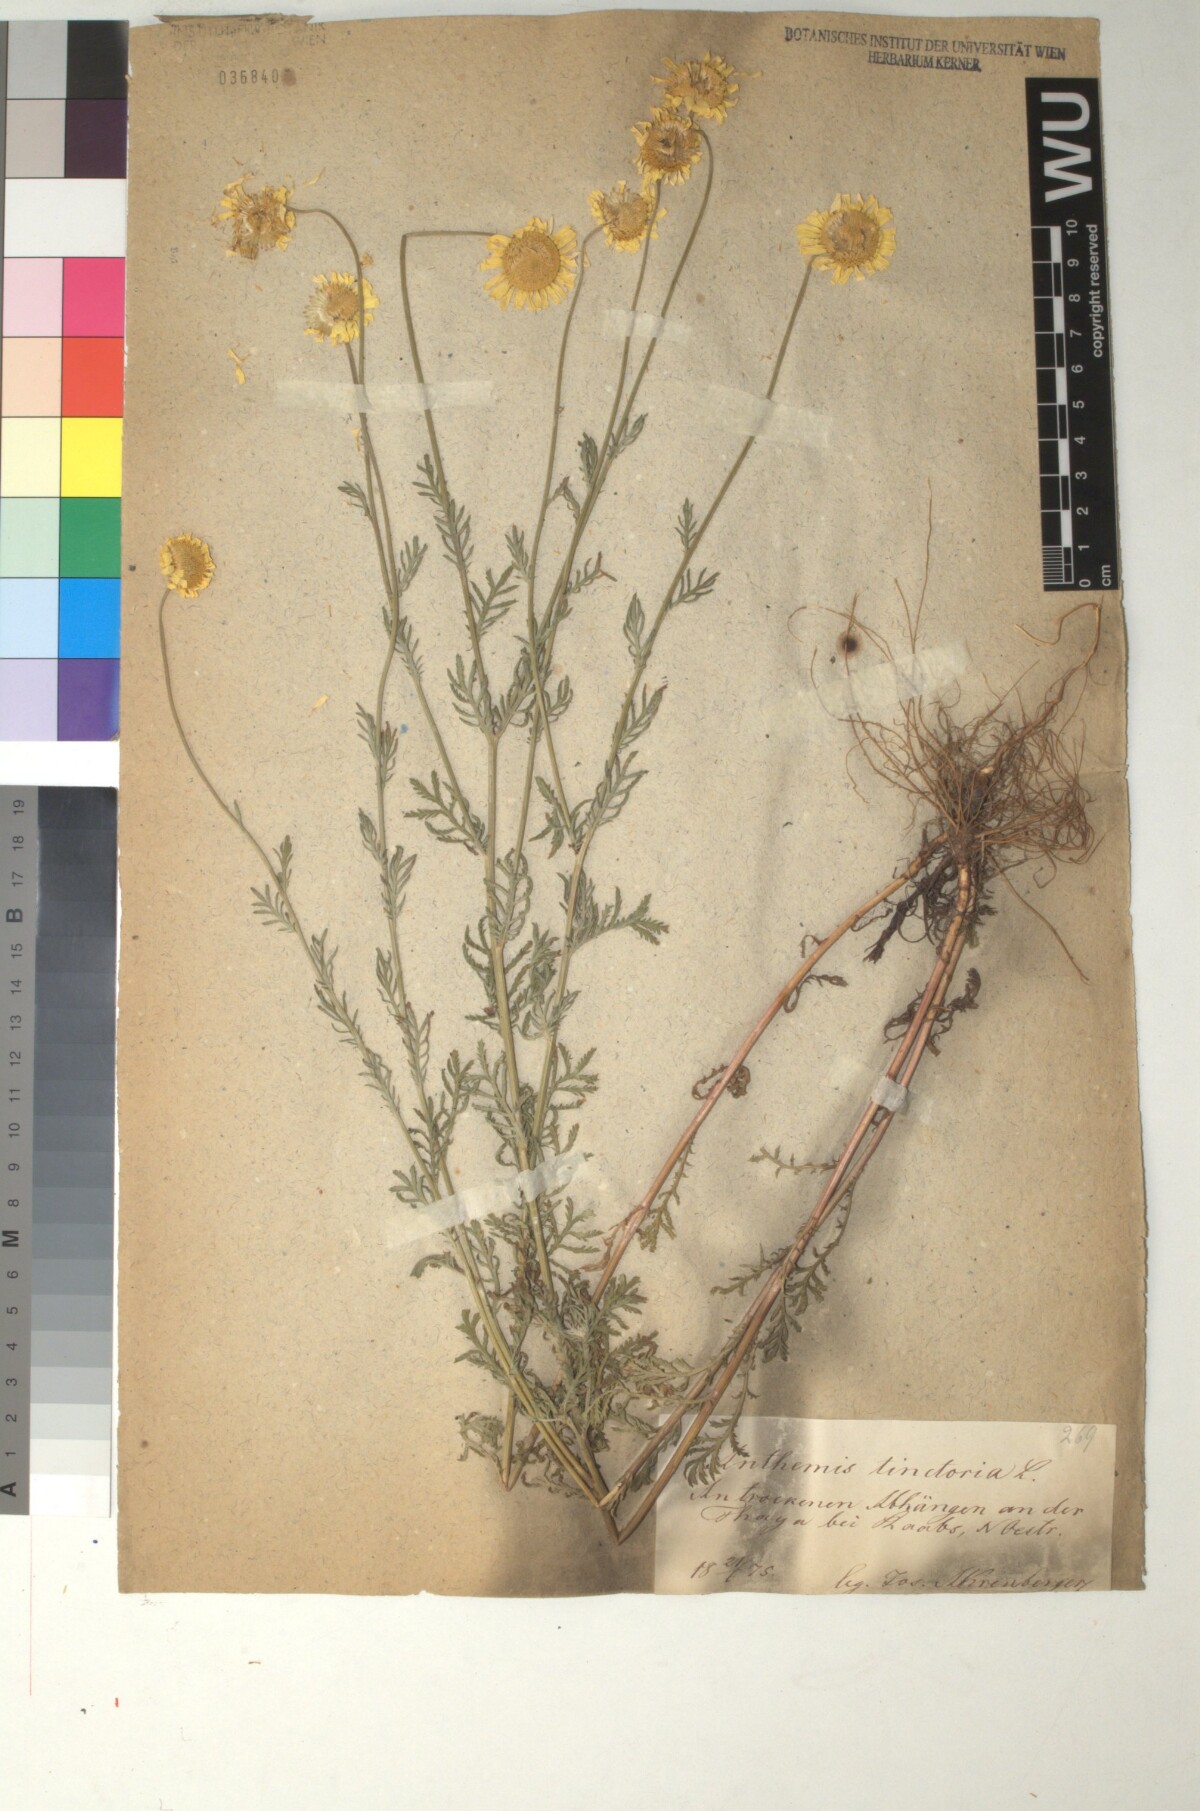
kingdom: Plantae
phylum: Tracheophyta
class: Magnoliopsida
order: Asterales
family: Asteraceae
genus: Cota
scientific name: Cota tinctoria
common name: Golden chamomile
